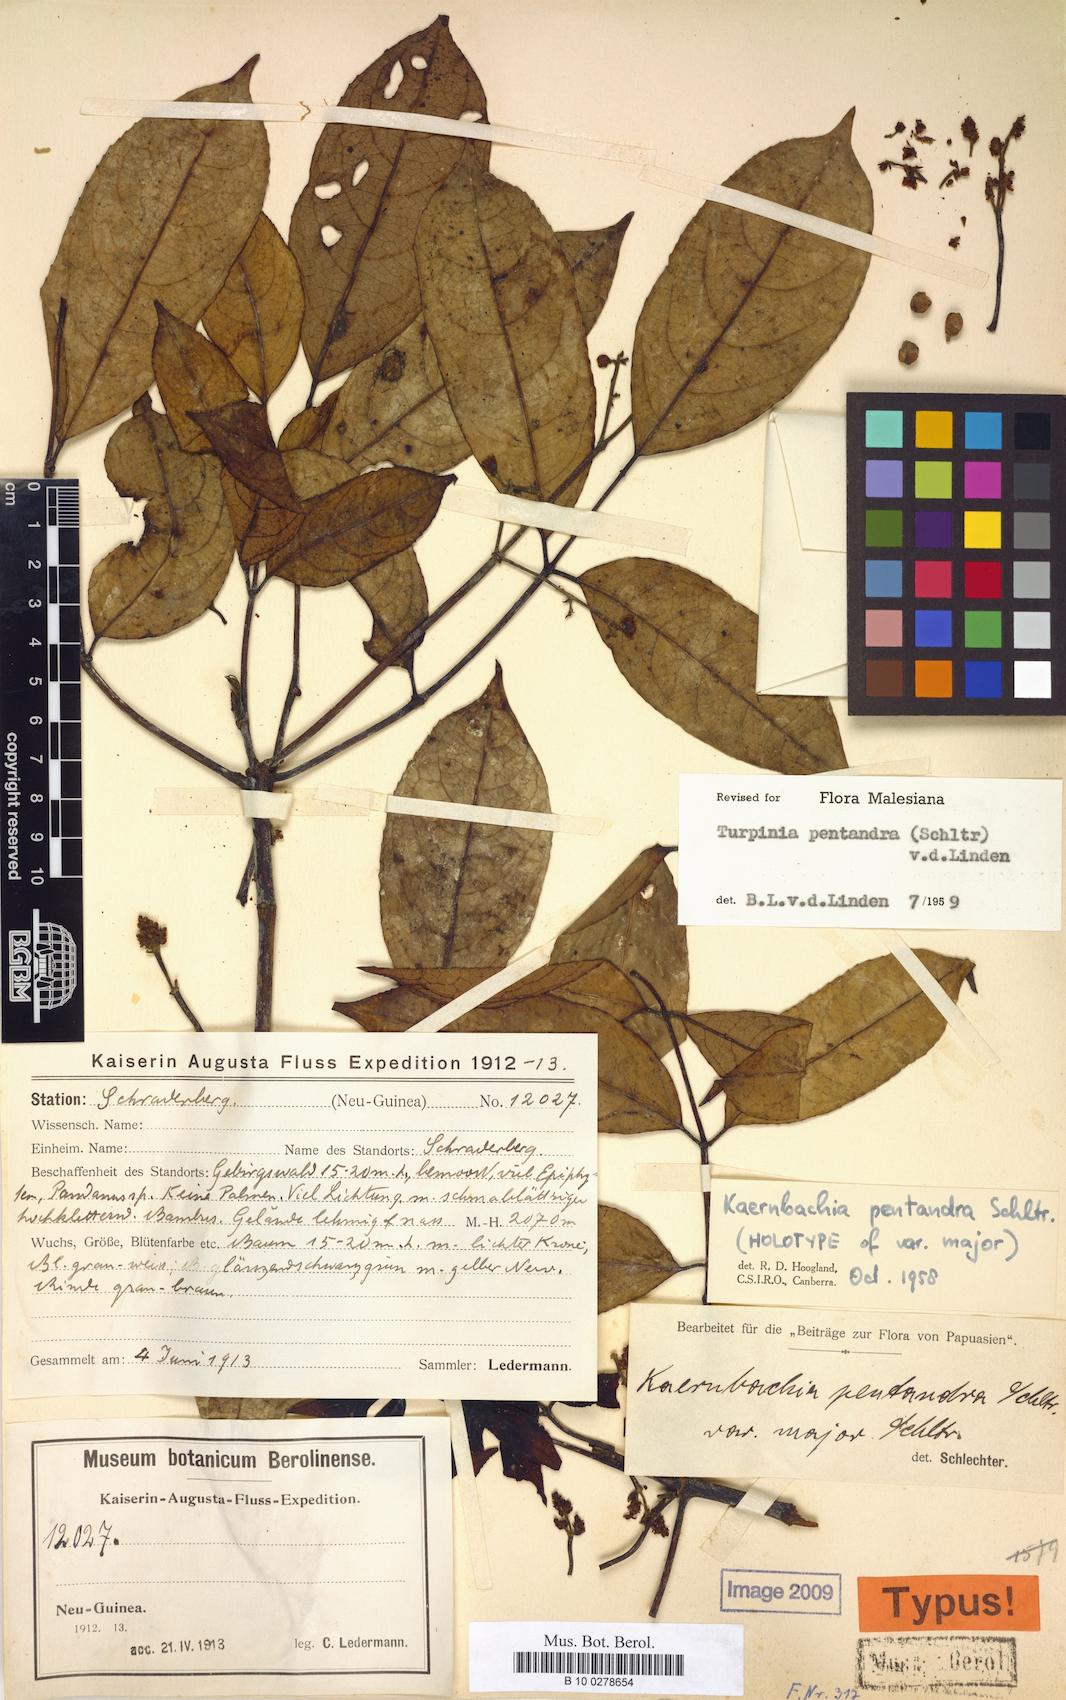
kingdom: Plantae
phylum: Tracheophyta
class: Magnoliopsida
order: Crossosomatales
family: Staphyleaceae
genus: Turpinia
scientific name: Turpinia pentandra
